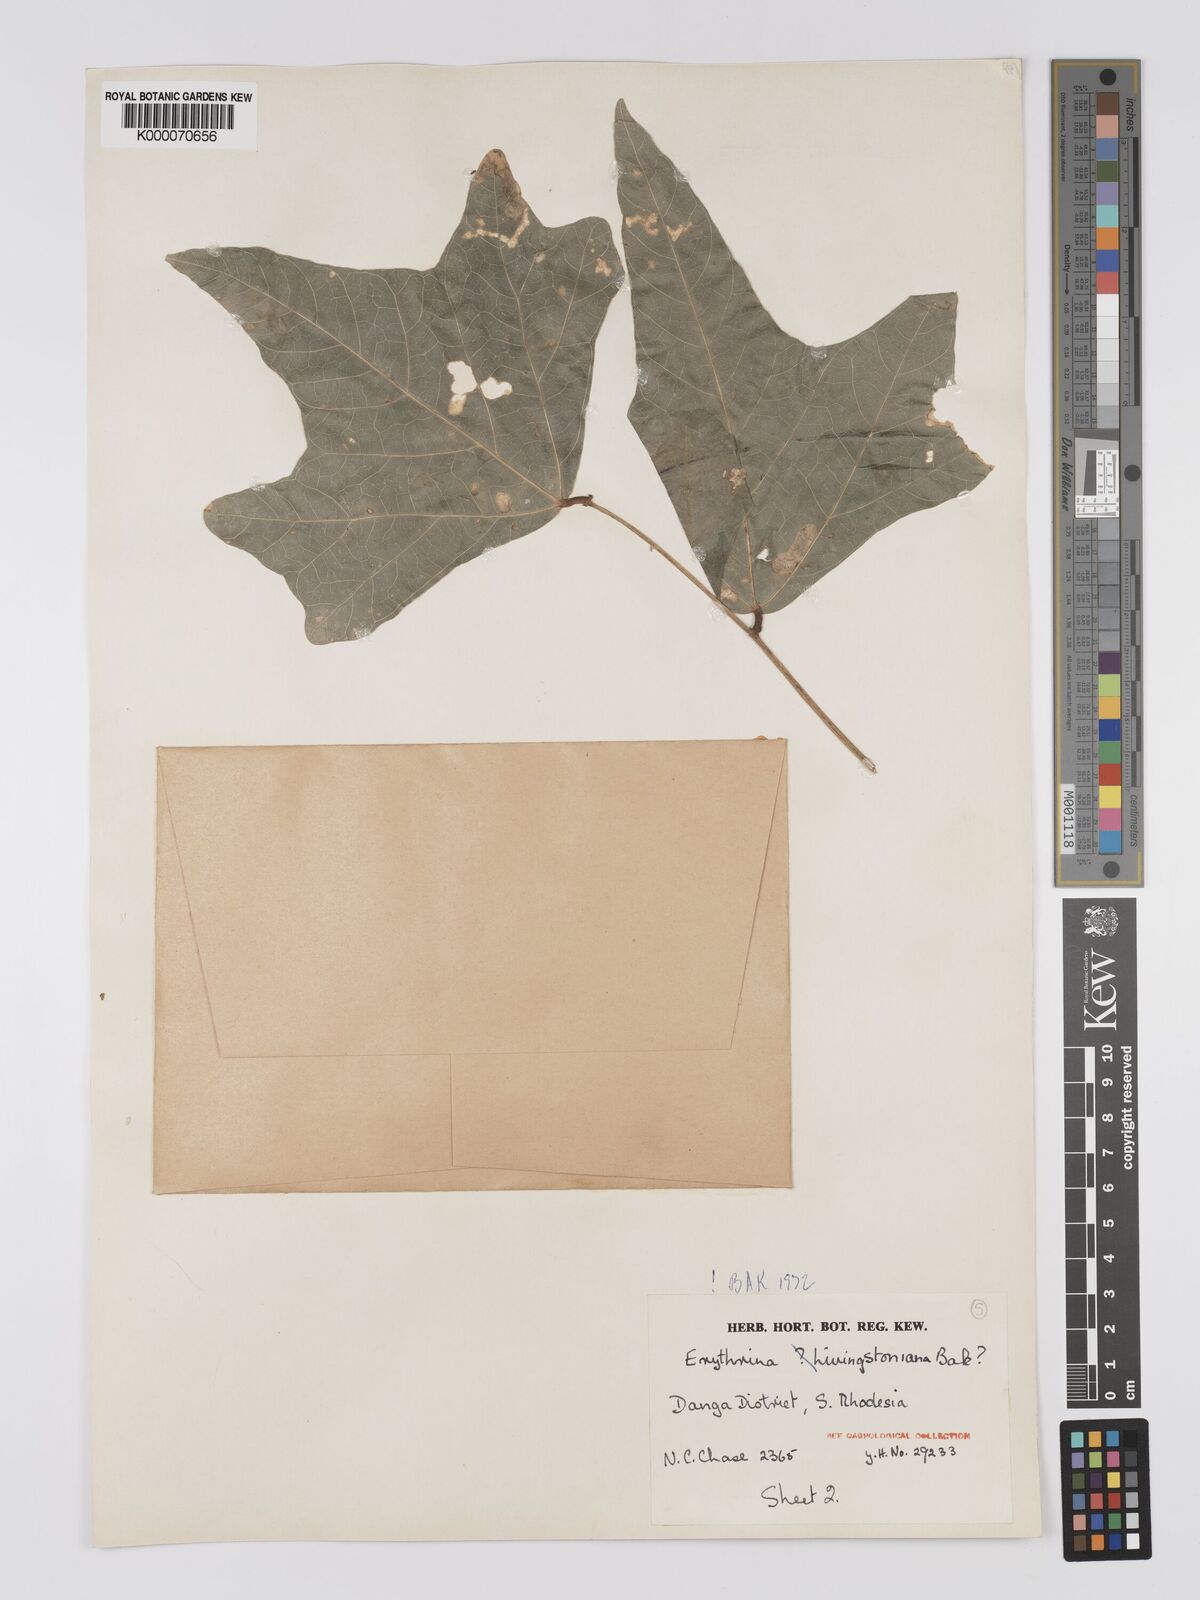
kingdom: Plantae
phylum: Tracheophyta
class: Magnoliopsida
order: Fabales
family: Fabaceae
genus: Erythrina
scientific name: Erythrina
